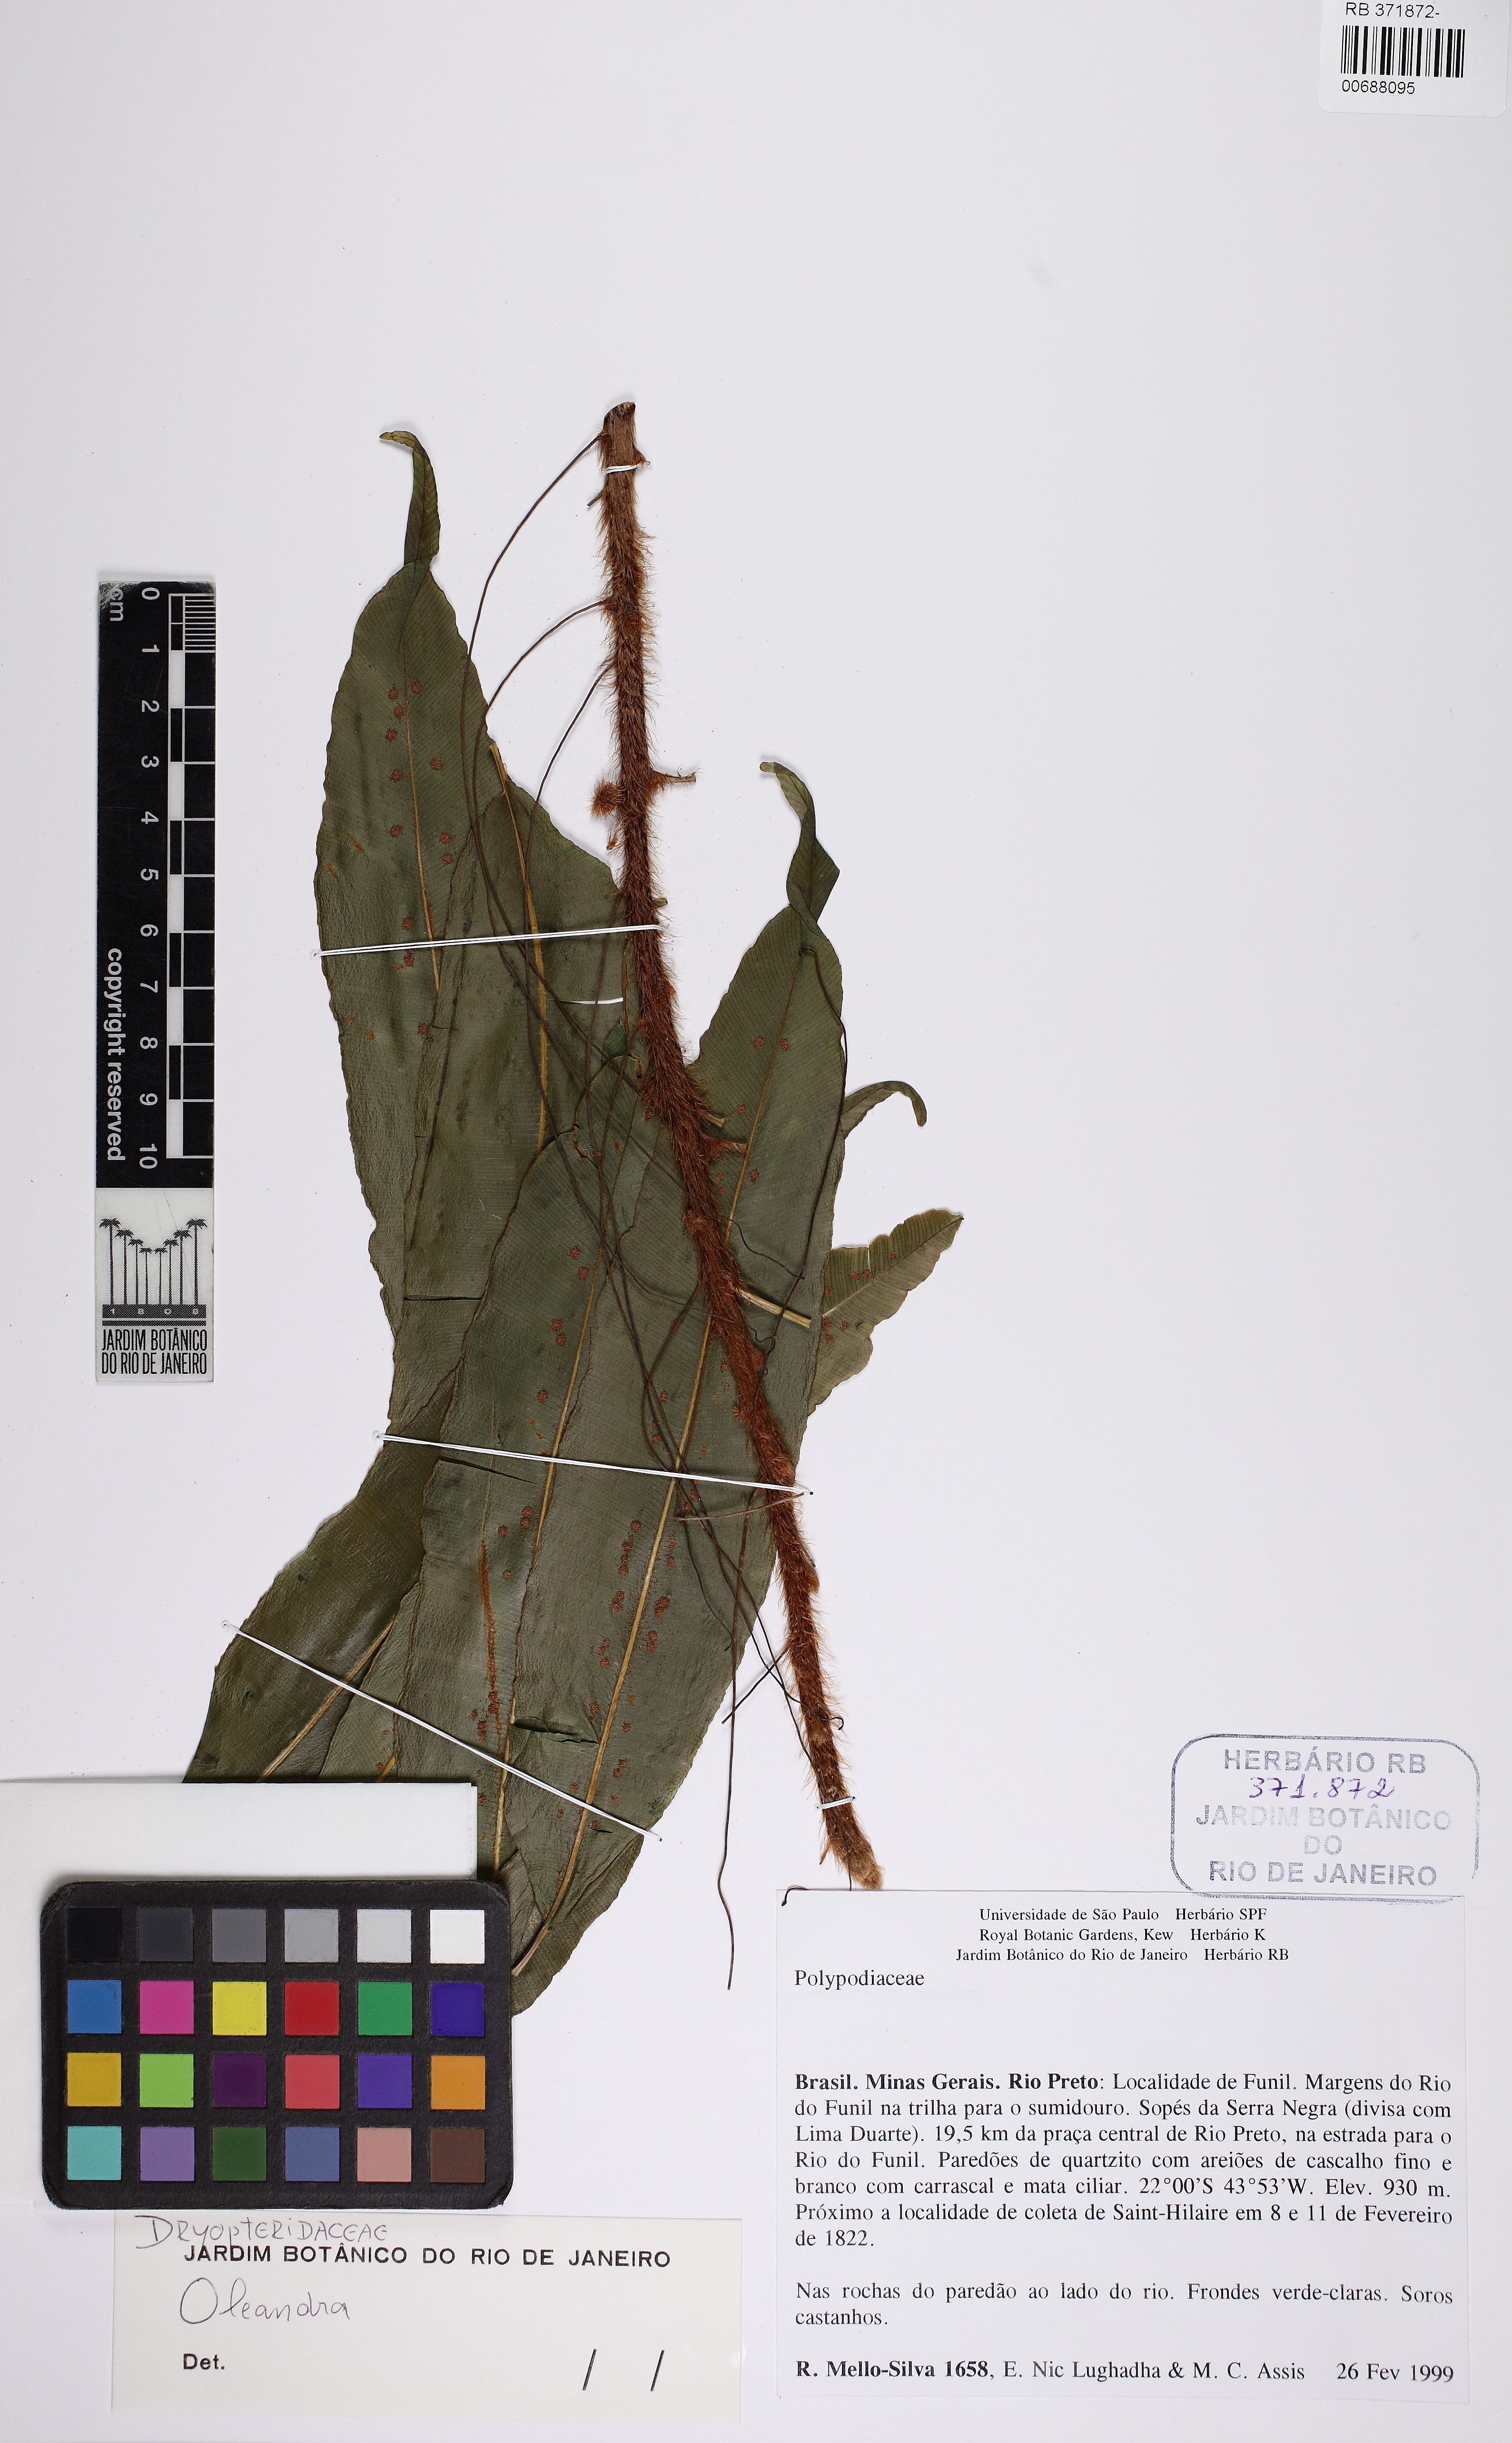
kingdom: Plantae
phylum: Tracheophyta
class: Polypodiopsida
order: Polypodiales
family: Oleandraceae
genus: Oleandra
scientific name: Oleandra baetae
